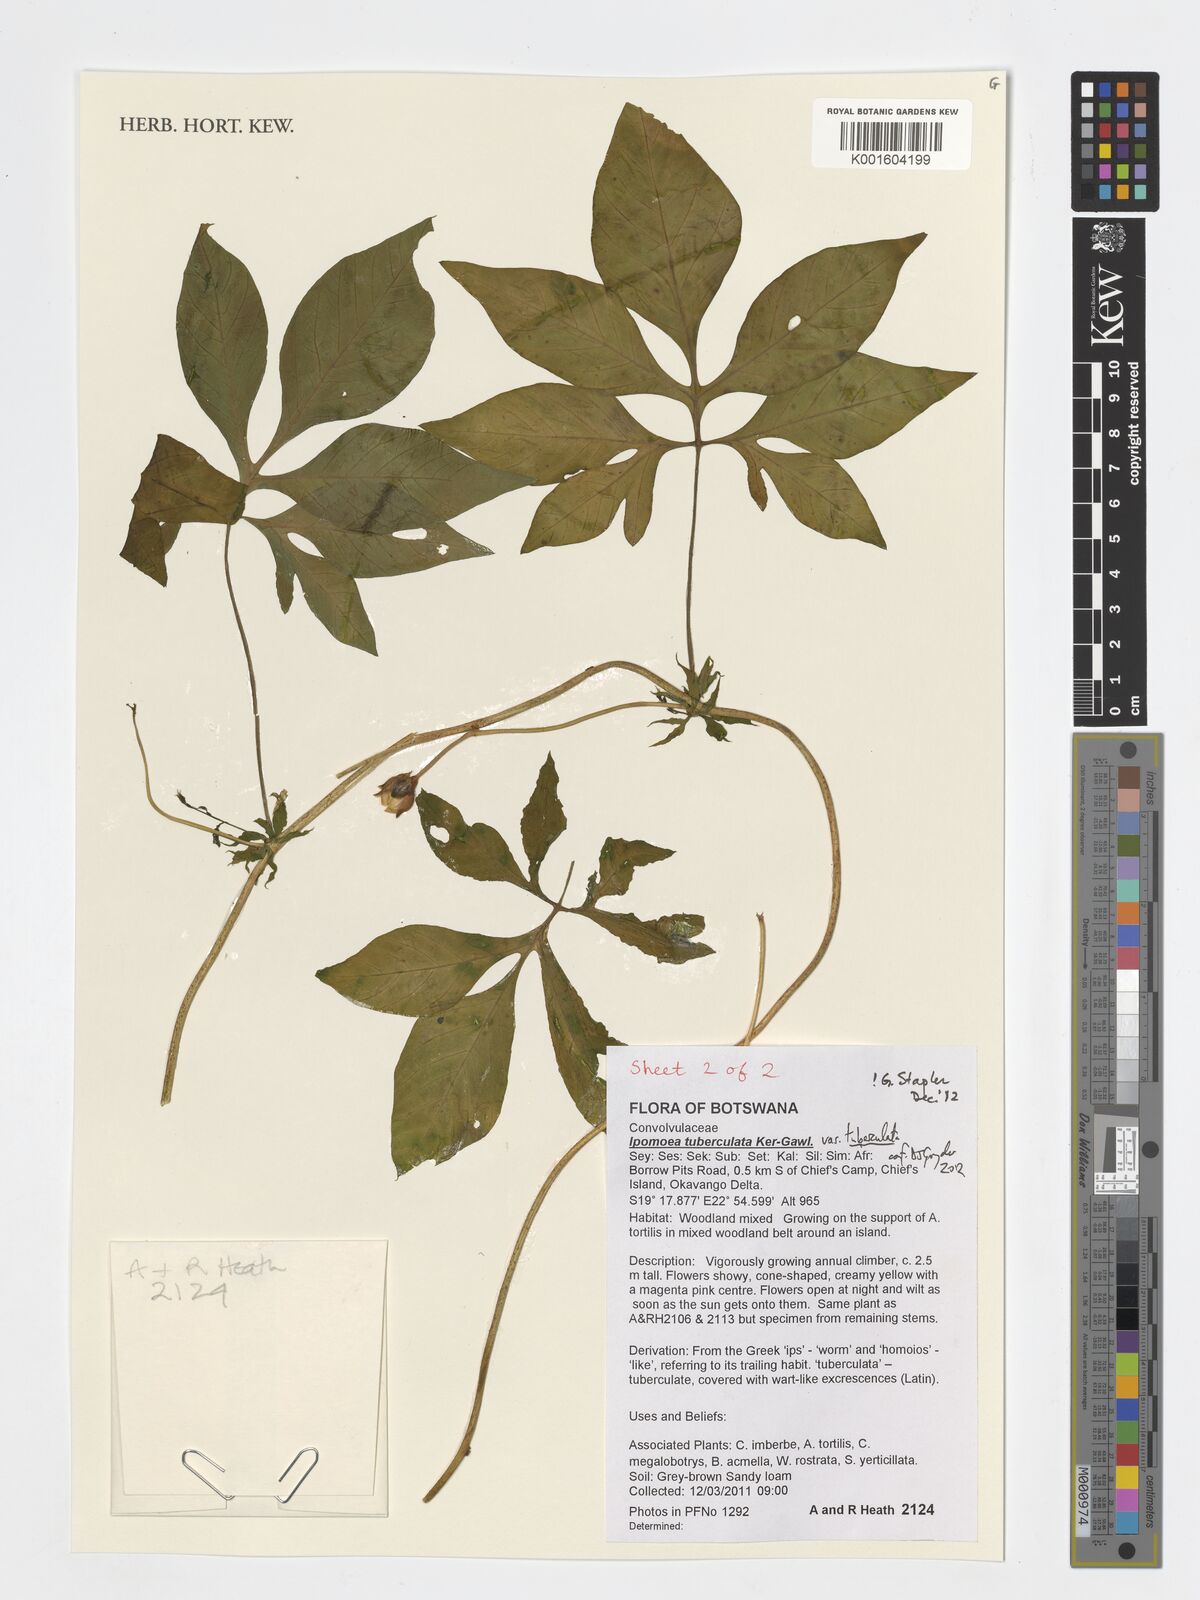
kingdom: Plantae
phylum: Tracheophyta
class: Magnoliopsida
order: Solanales
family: Convolvulaceae
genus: Ipomoea
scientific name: Ipomoea tuberculata
